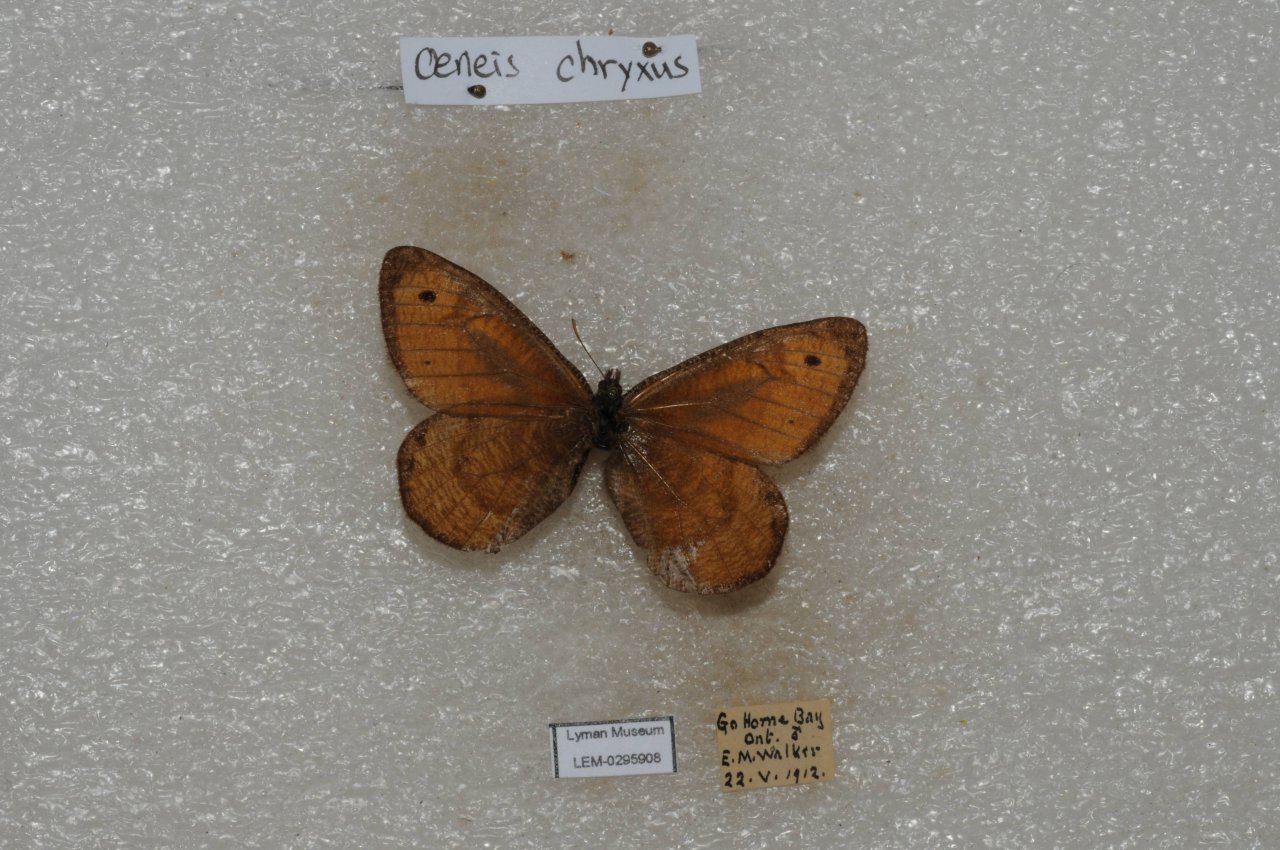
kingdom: Animalia
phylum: Arthropoda
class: Insecta
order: Lepidoptera
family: Nymphalidae
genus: Oeneis
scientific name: Oeneis chryxus
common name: Chryxus Arctic
